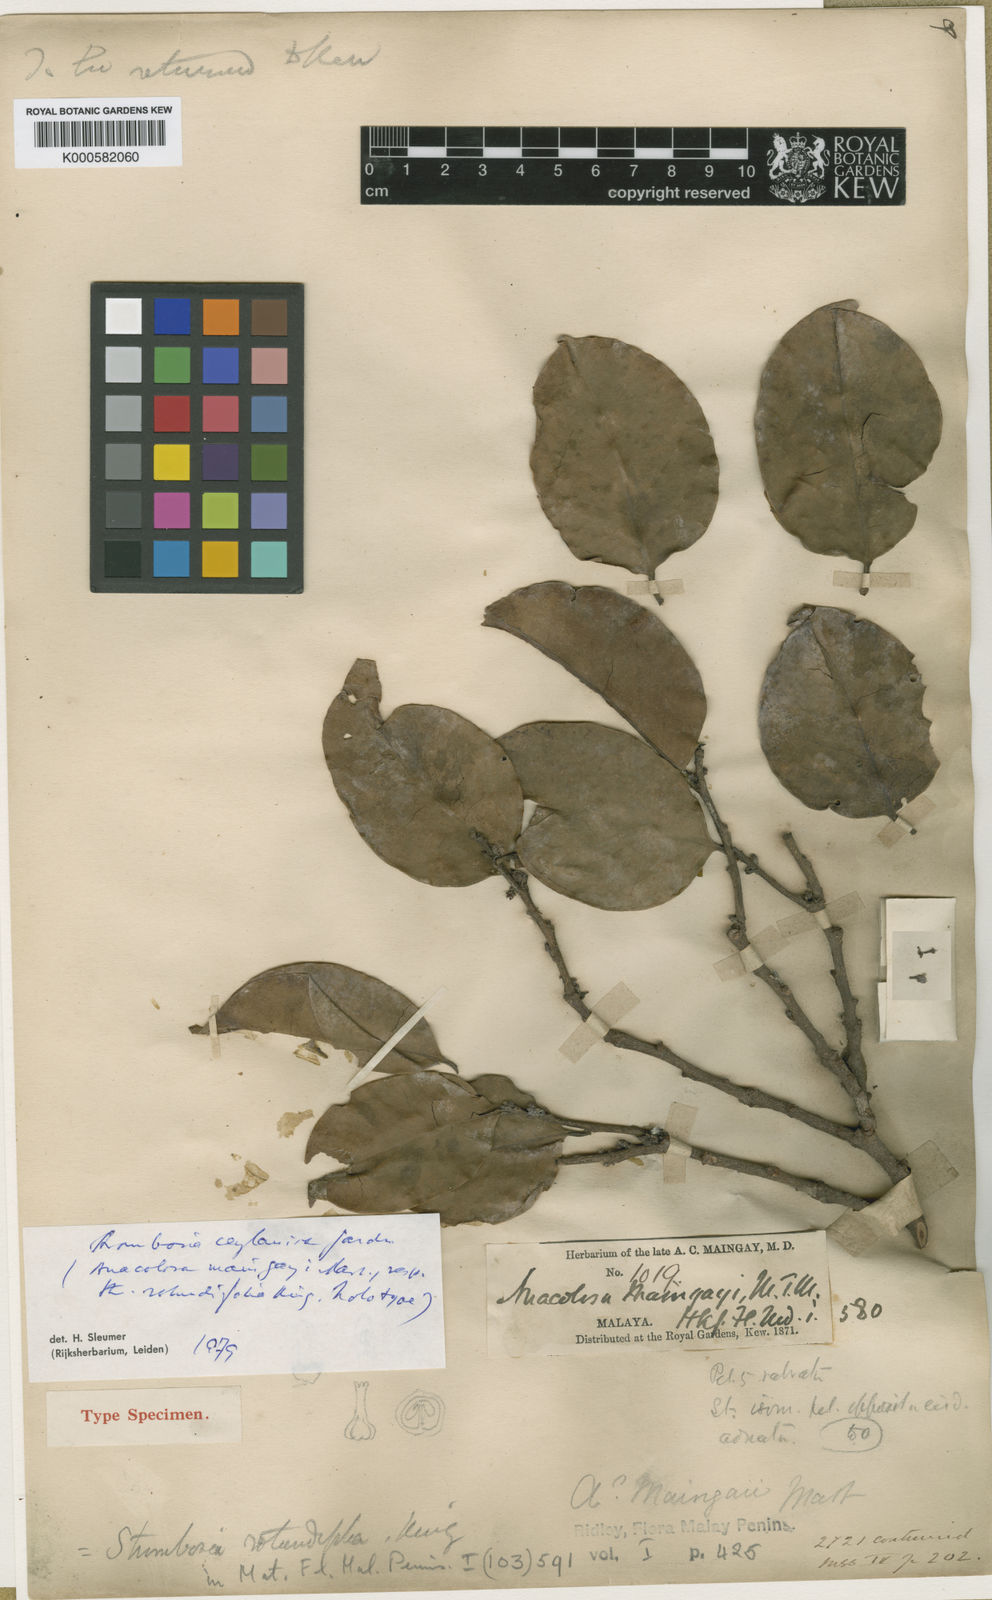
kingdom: Plantae
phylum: Tracheophyta
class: Magnoliopsida
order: Santalales
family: Strombosiaceae
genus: Strombosia
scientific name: Strombosia ceylanica
